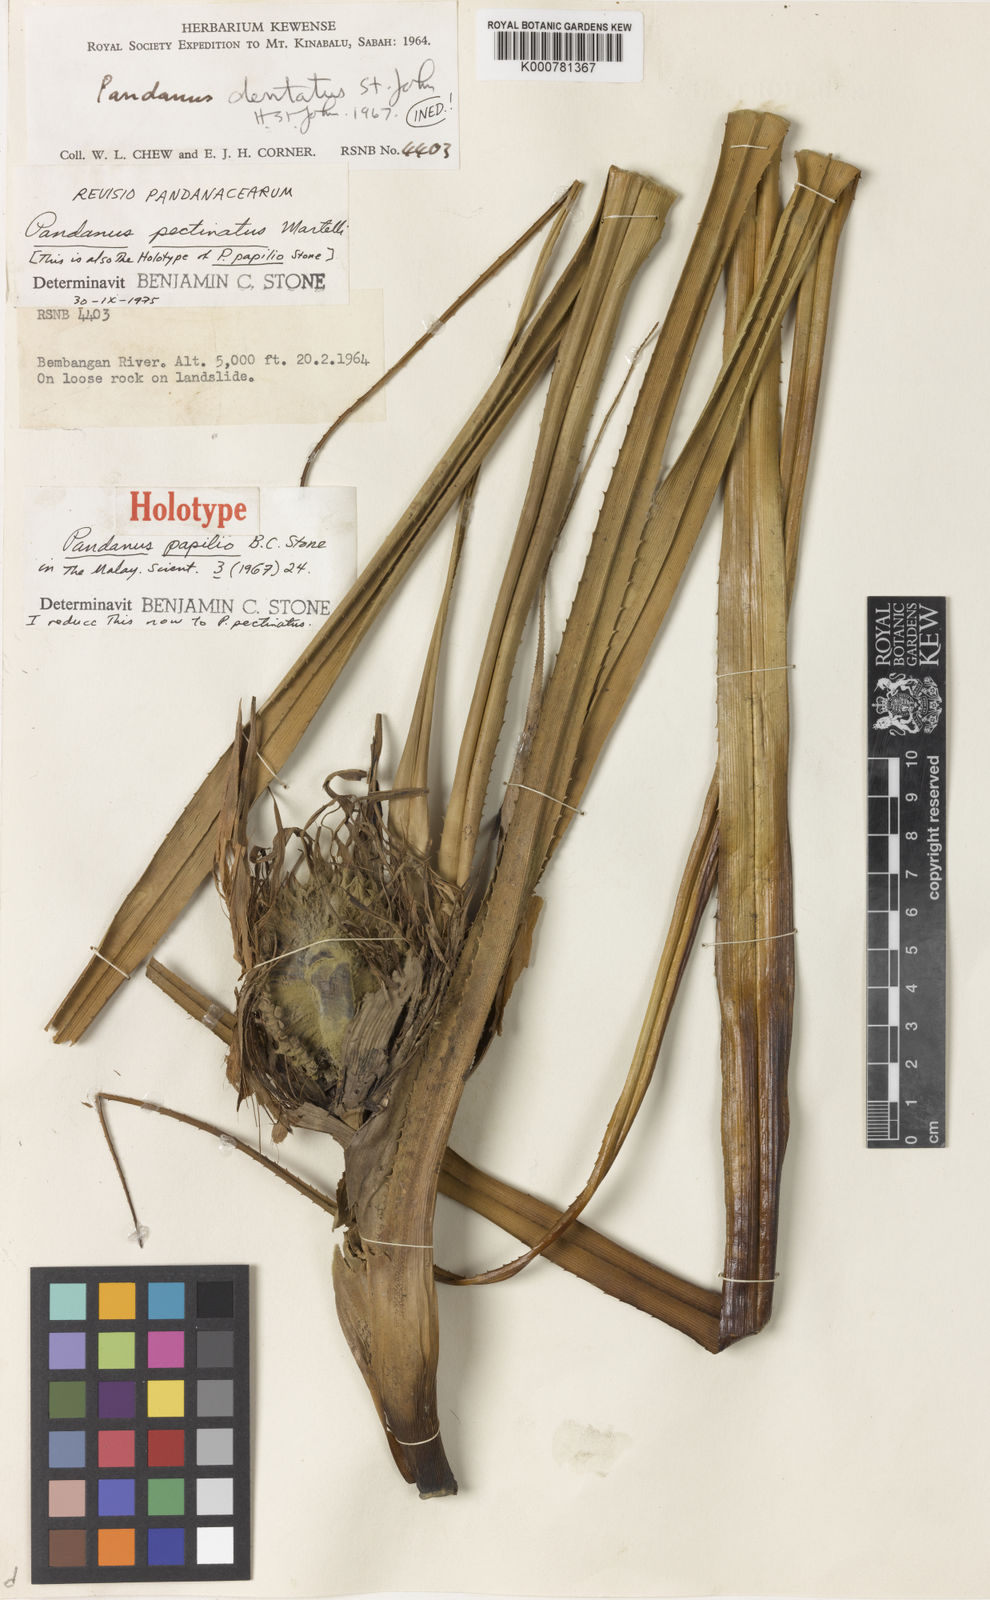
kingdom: Plantae
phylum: Tracheophyta
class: Liliopsida
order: Pandanales
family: Pandanaceae
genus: Benstonea
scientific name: Benstonea pectinata
